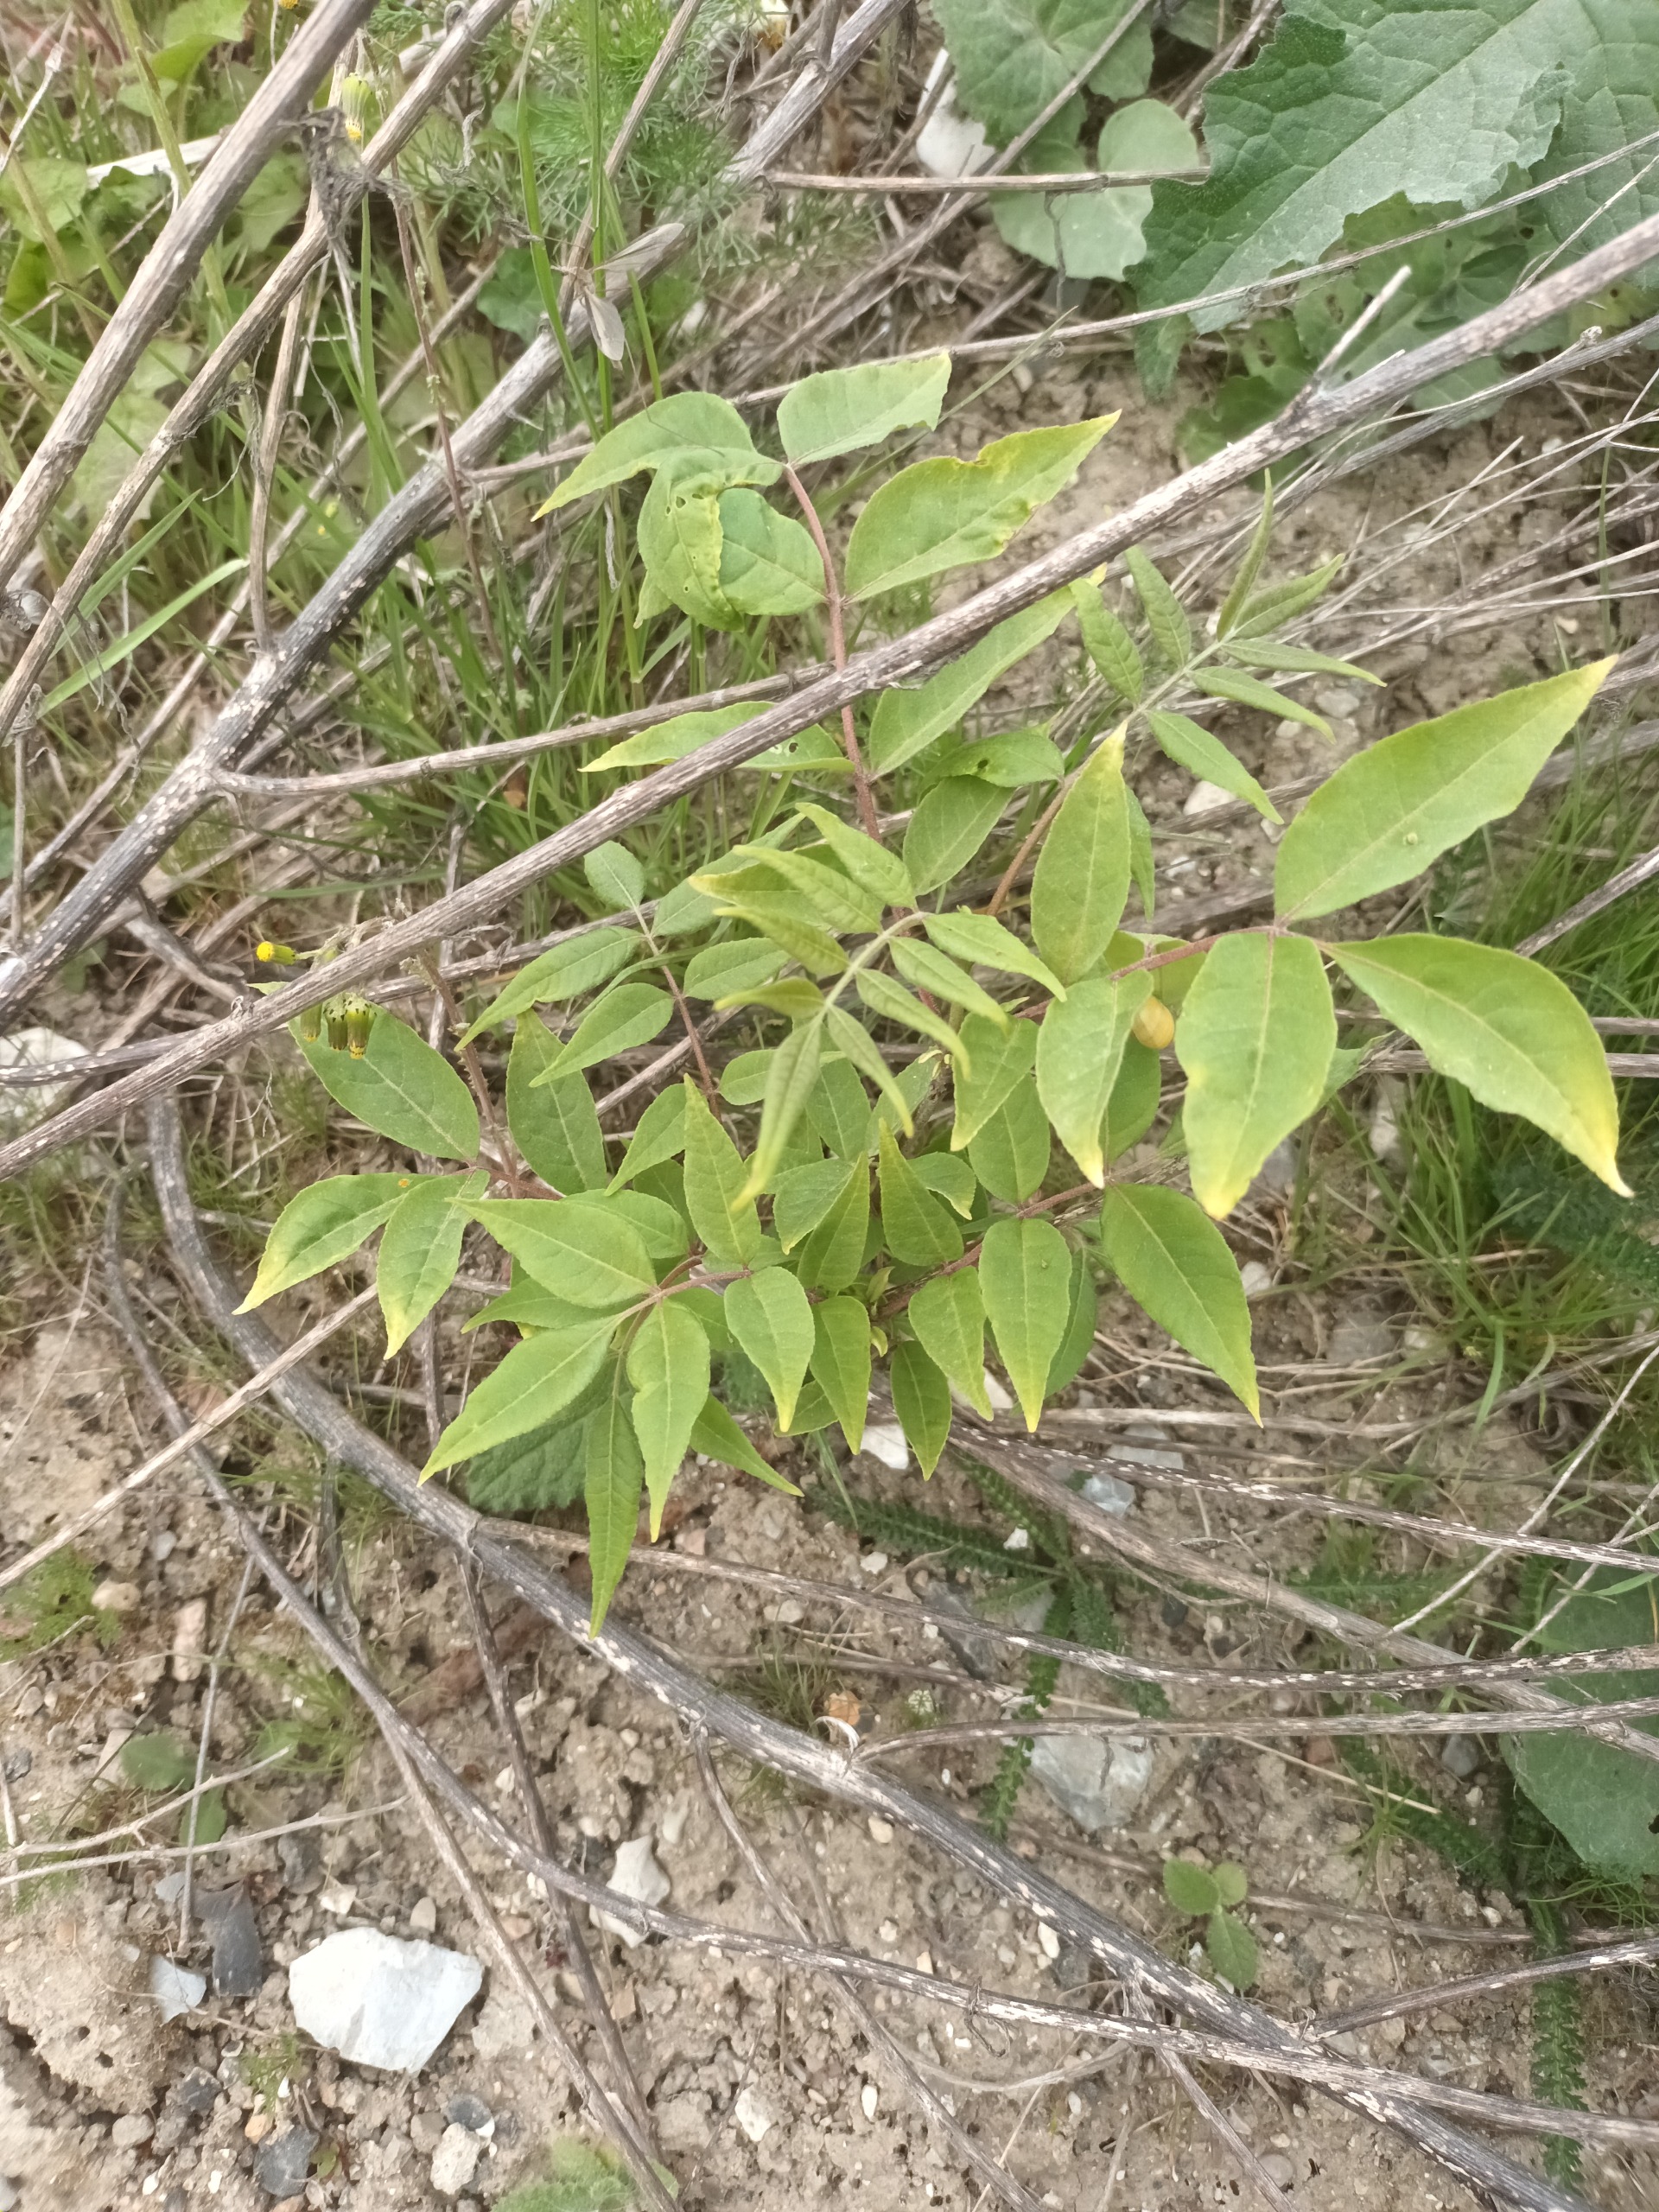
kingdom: Plantae
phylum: Tracheophyta
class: Magnoliopsida
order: Sapindales
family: Simaroubaceae
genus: Ailanthus
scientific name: Ailanthus altissima
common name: Skyrækker
